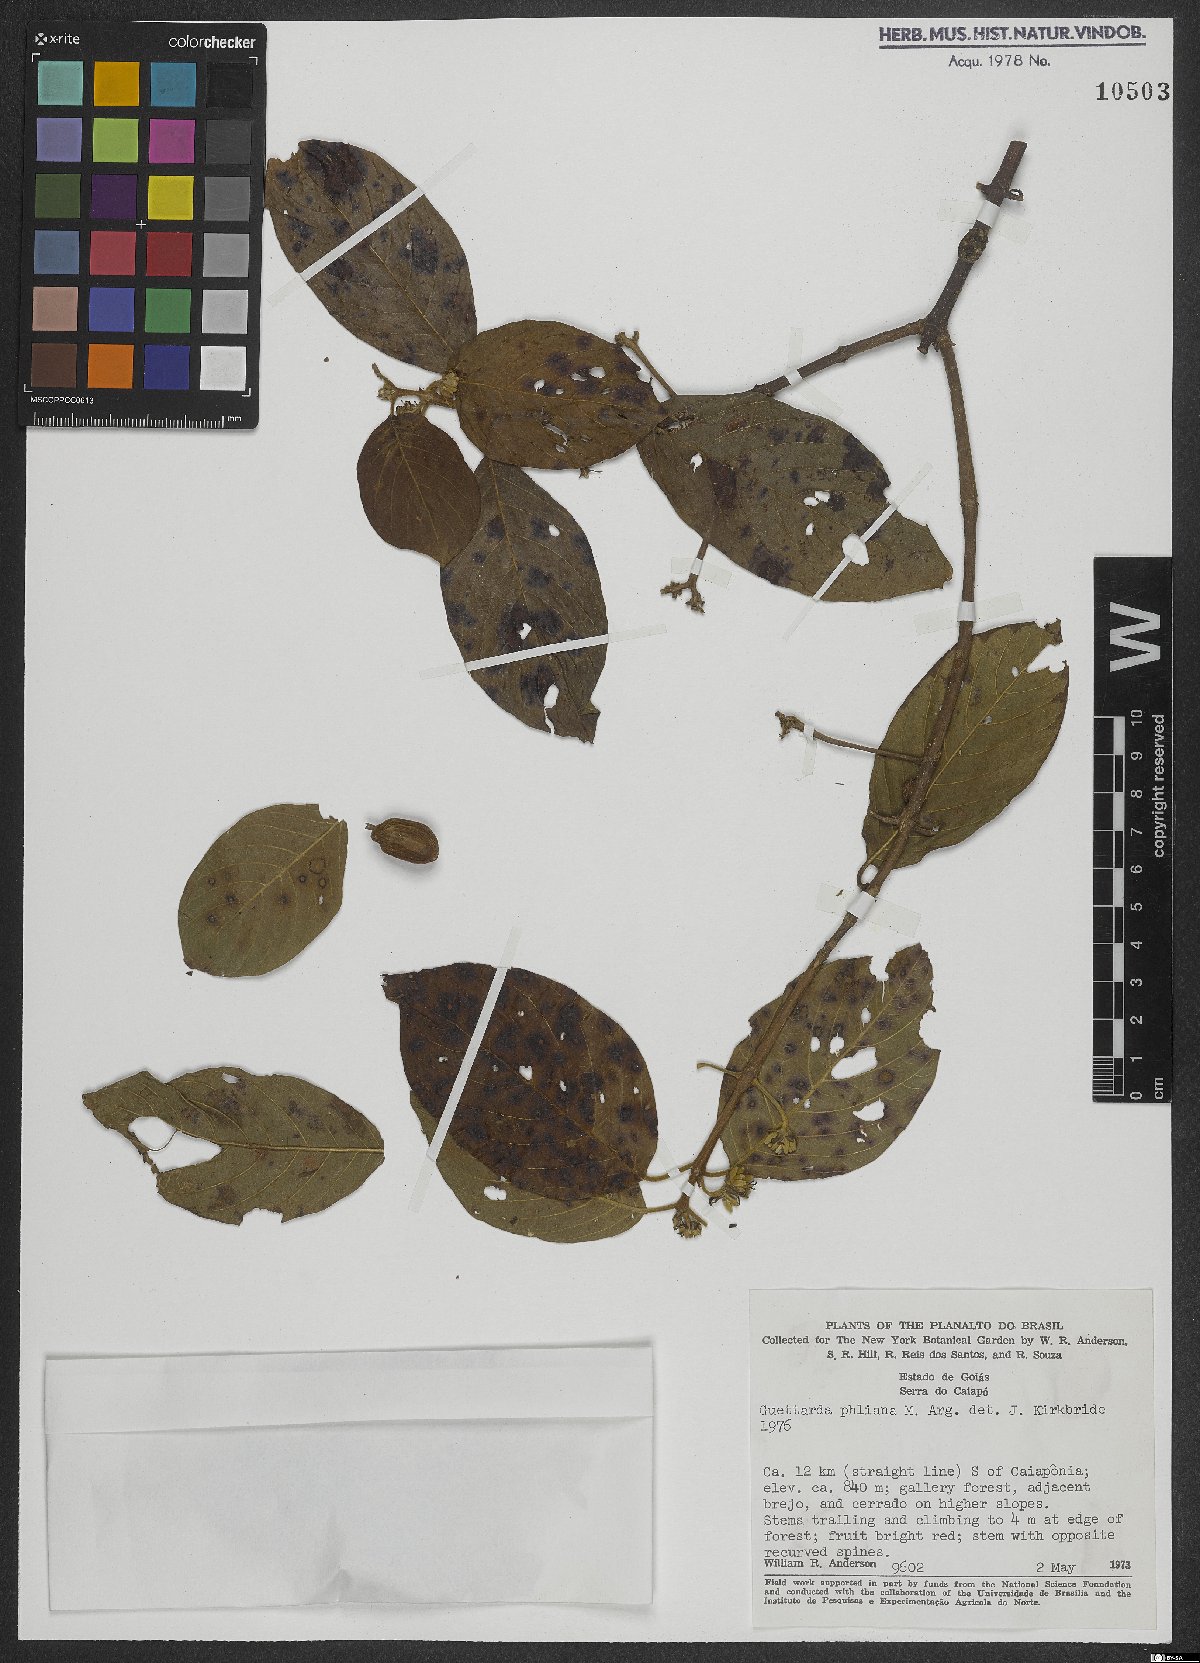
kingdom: Plantae
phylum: Tracheophyta
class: Magnoliopsida
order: Gentianales
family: Rubiaceae
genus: Guettarda
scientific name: Guettarda pohliana
